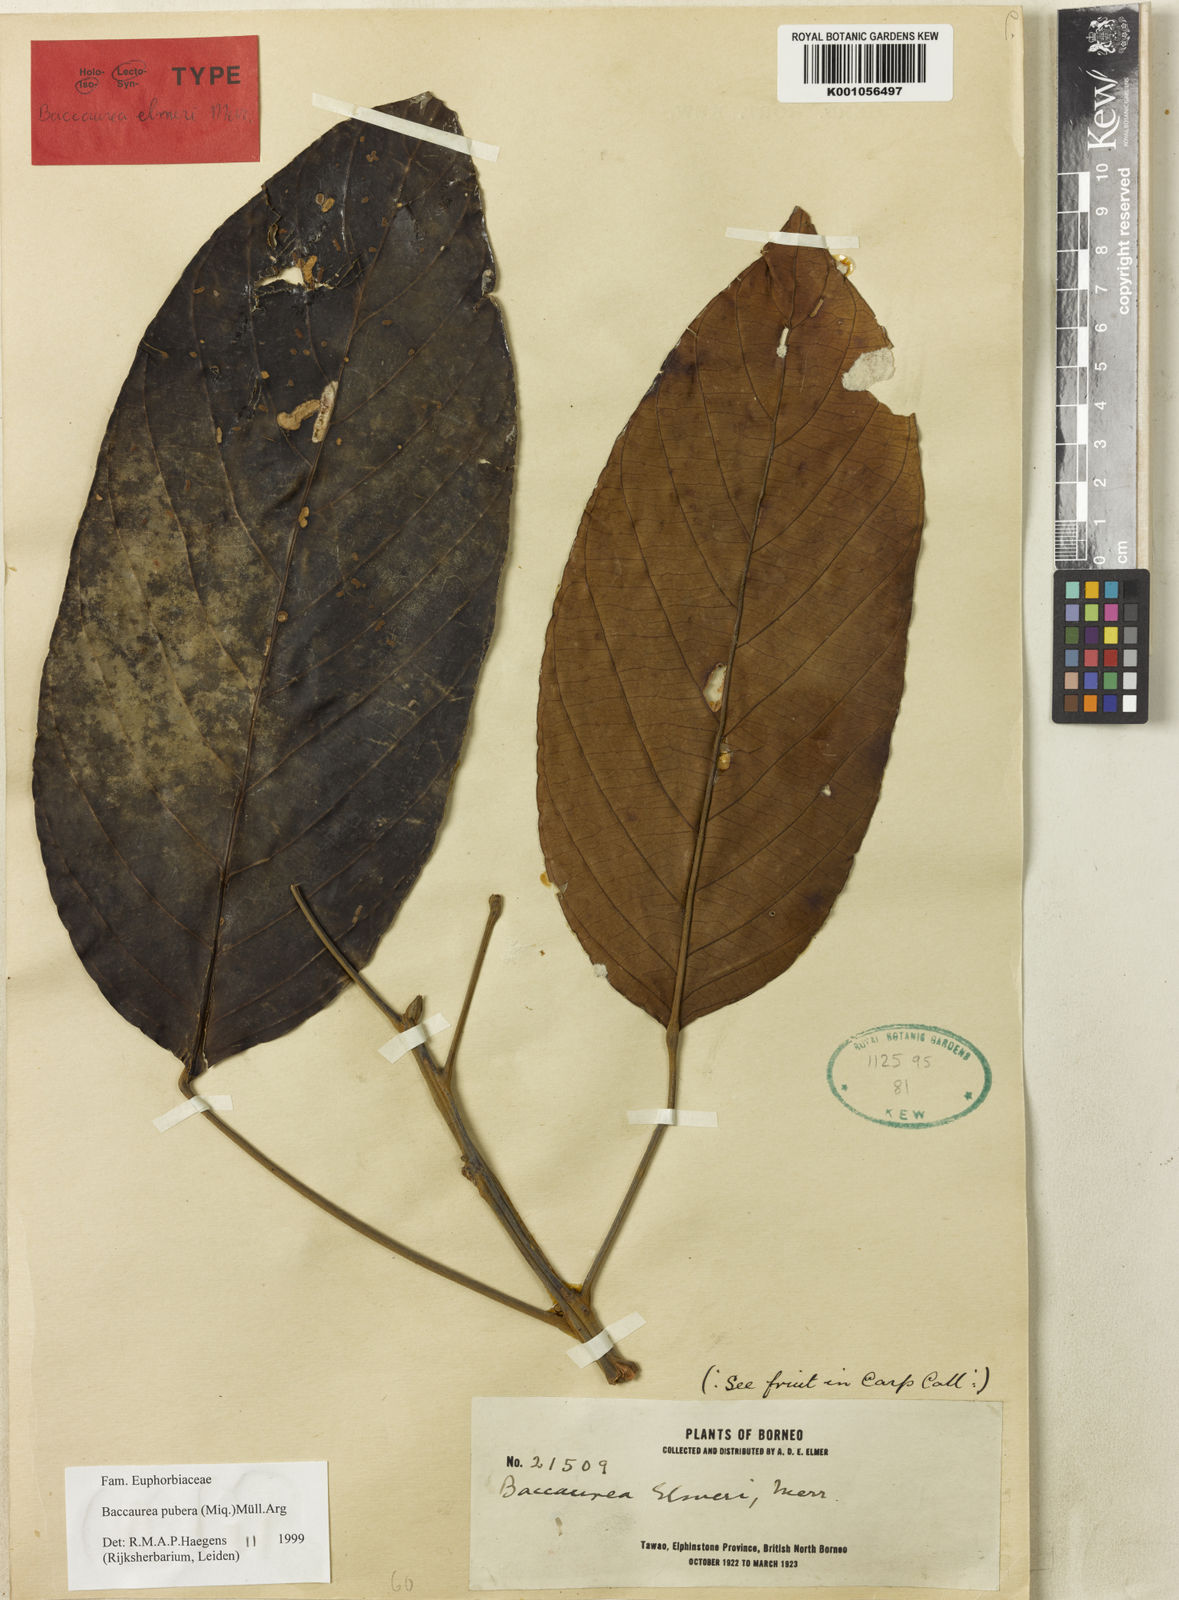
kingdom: Plantae
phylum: Tracheophyta
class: Magnoliopsida
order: Malpighiales
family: Phyllanthaceae
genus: Baccaurea
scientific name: Baccaurea
